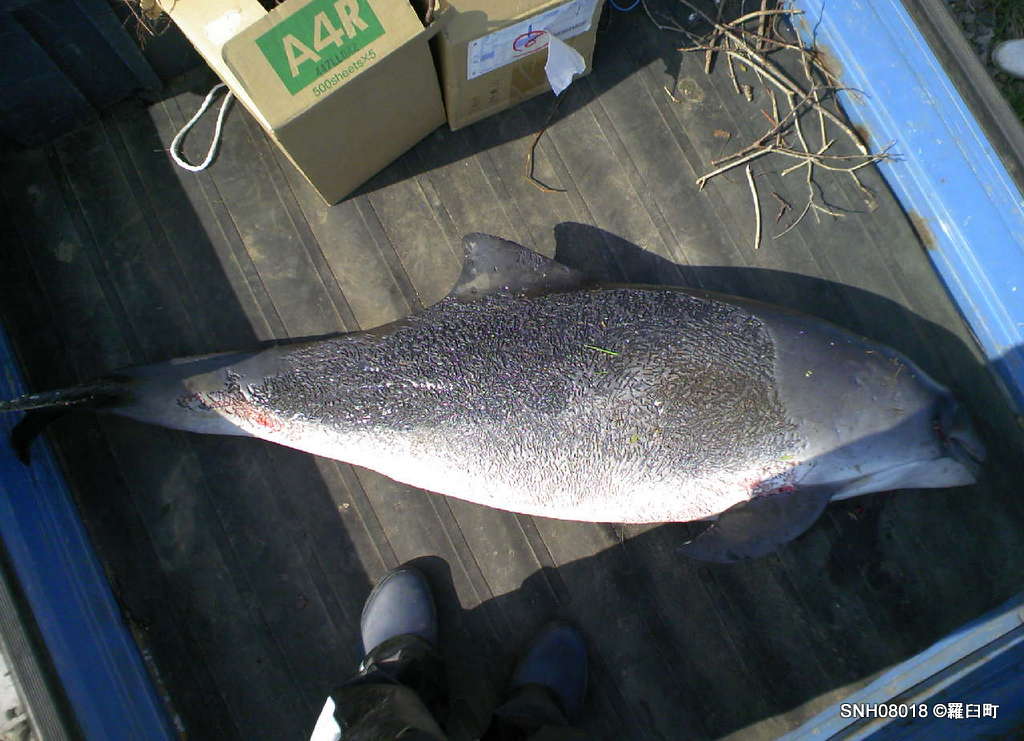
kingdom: Animalia
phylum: Chordata
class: Mammalia
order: Cetacea
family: Phocoenidae
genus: Phocoena
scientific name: Phocoena phocoena
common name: Harbour porpoise
